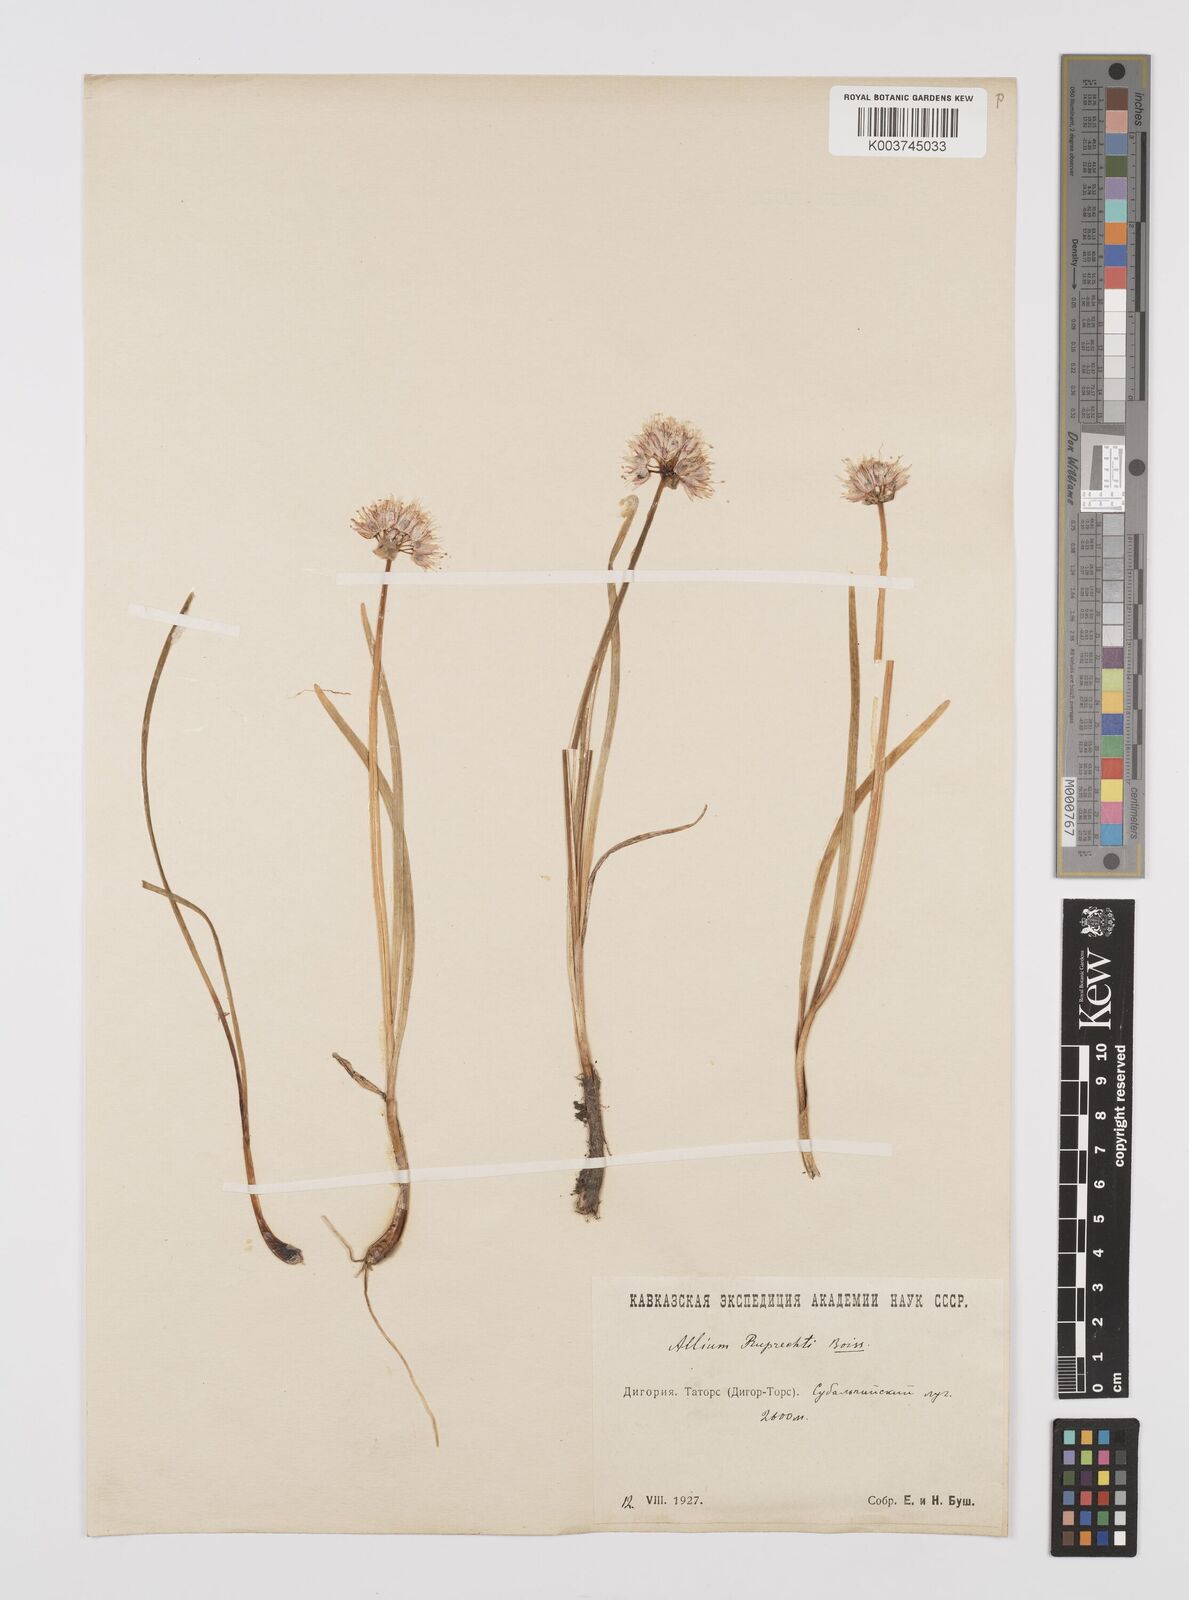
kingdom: Plantae
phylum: Tracheophyta
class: Liliopsida
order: Asparagales
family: Amaryllidaceae
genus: Allium
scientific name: Allium saxatile
